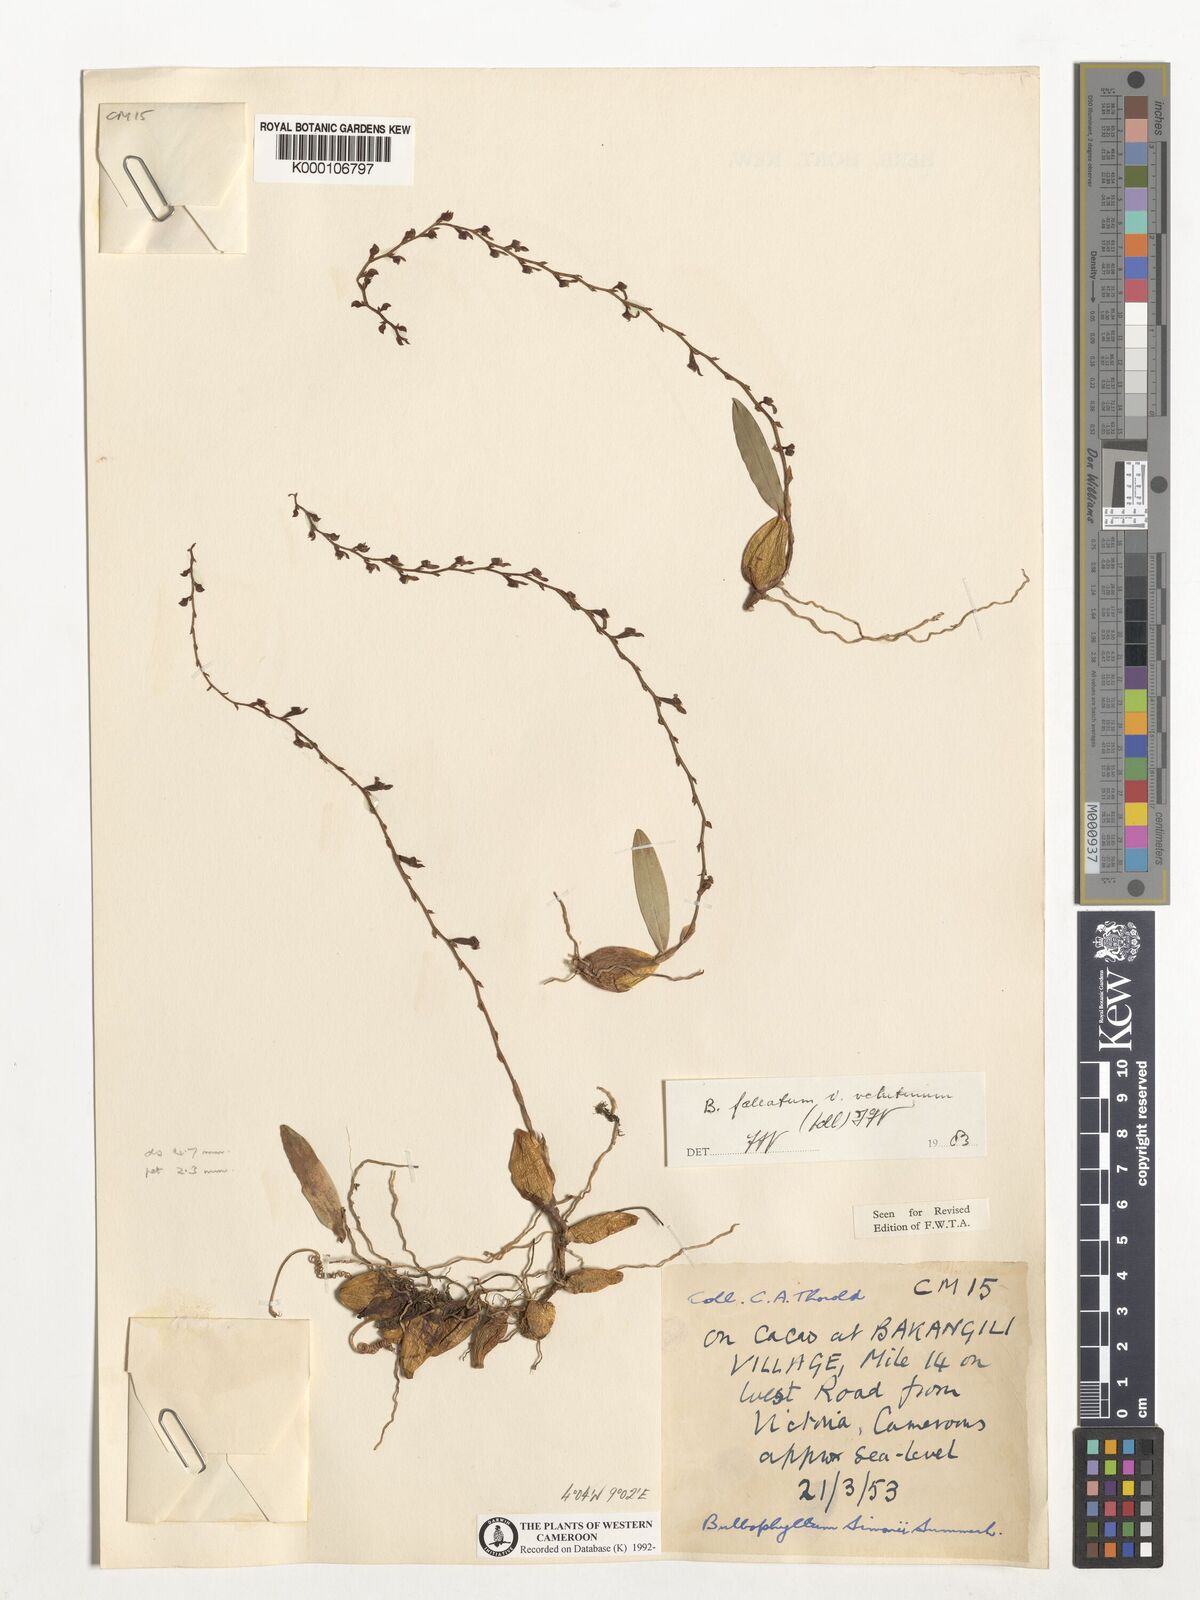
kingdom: Plantae
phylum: Tracheophyta
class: Liliopsida
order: Asparagales
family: Orchidaceae
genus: Bulbophyllum
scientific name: Bulbophyllum falcatum
